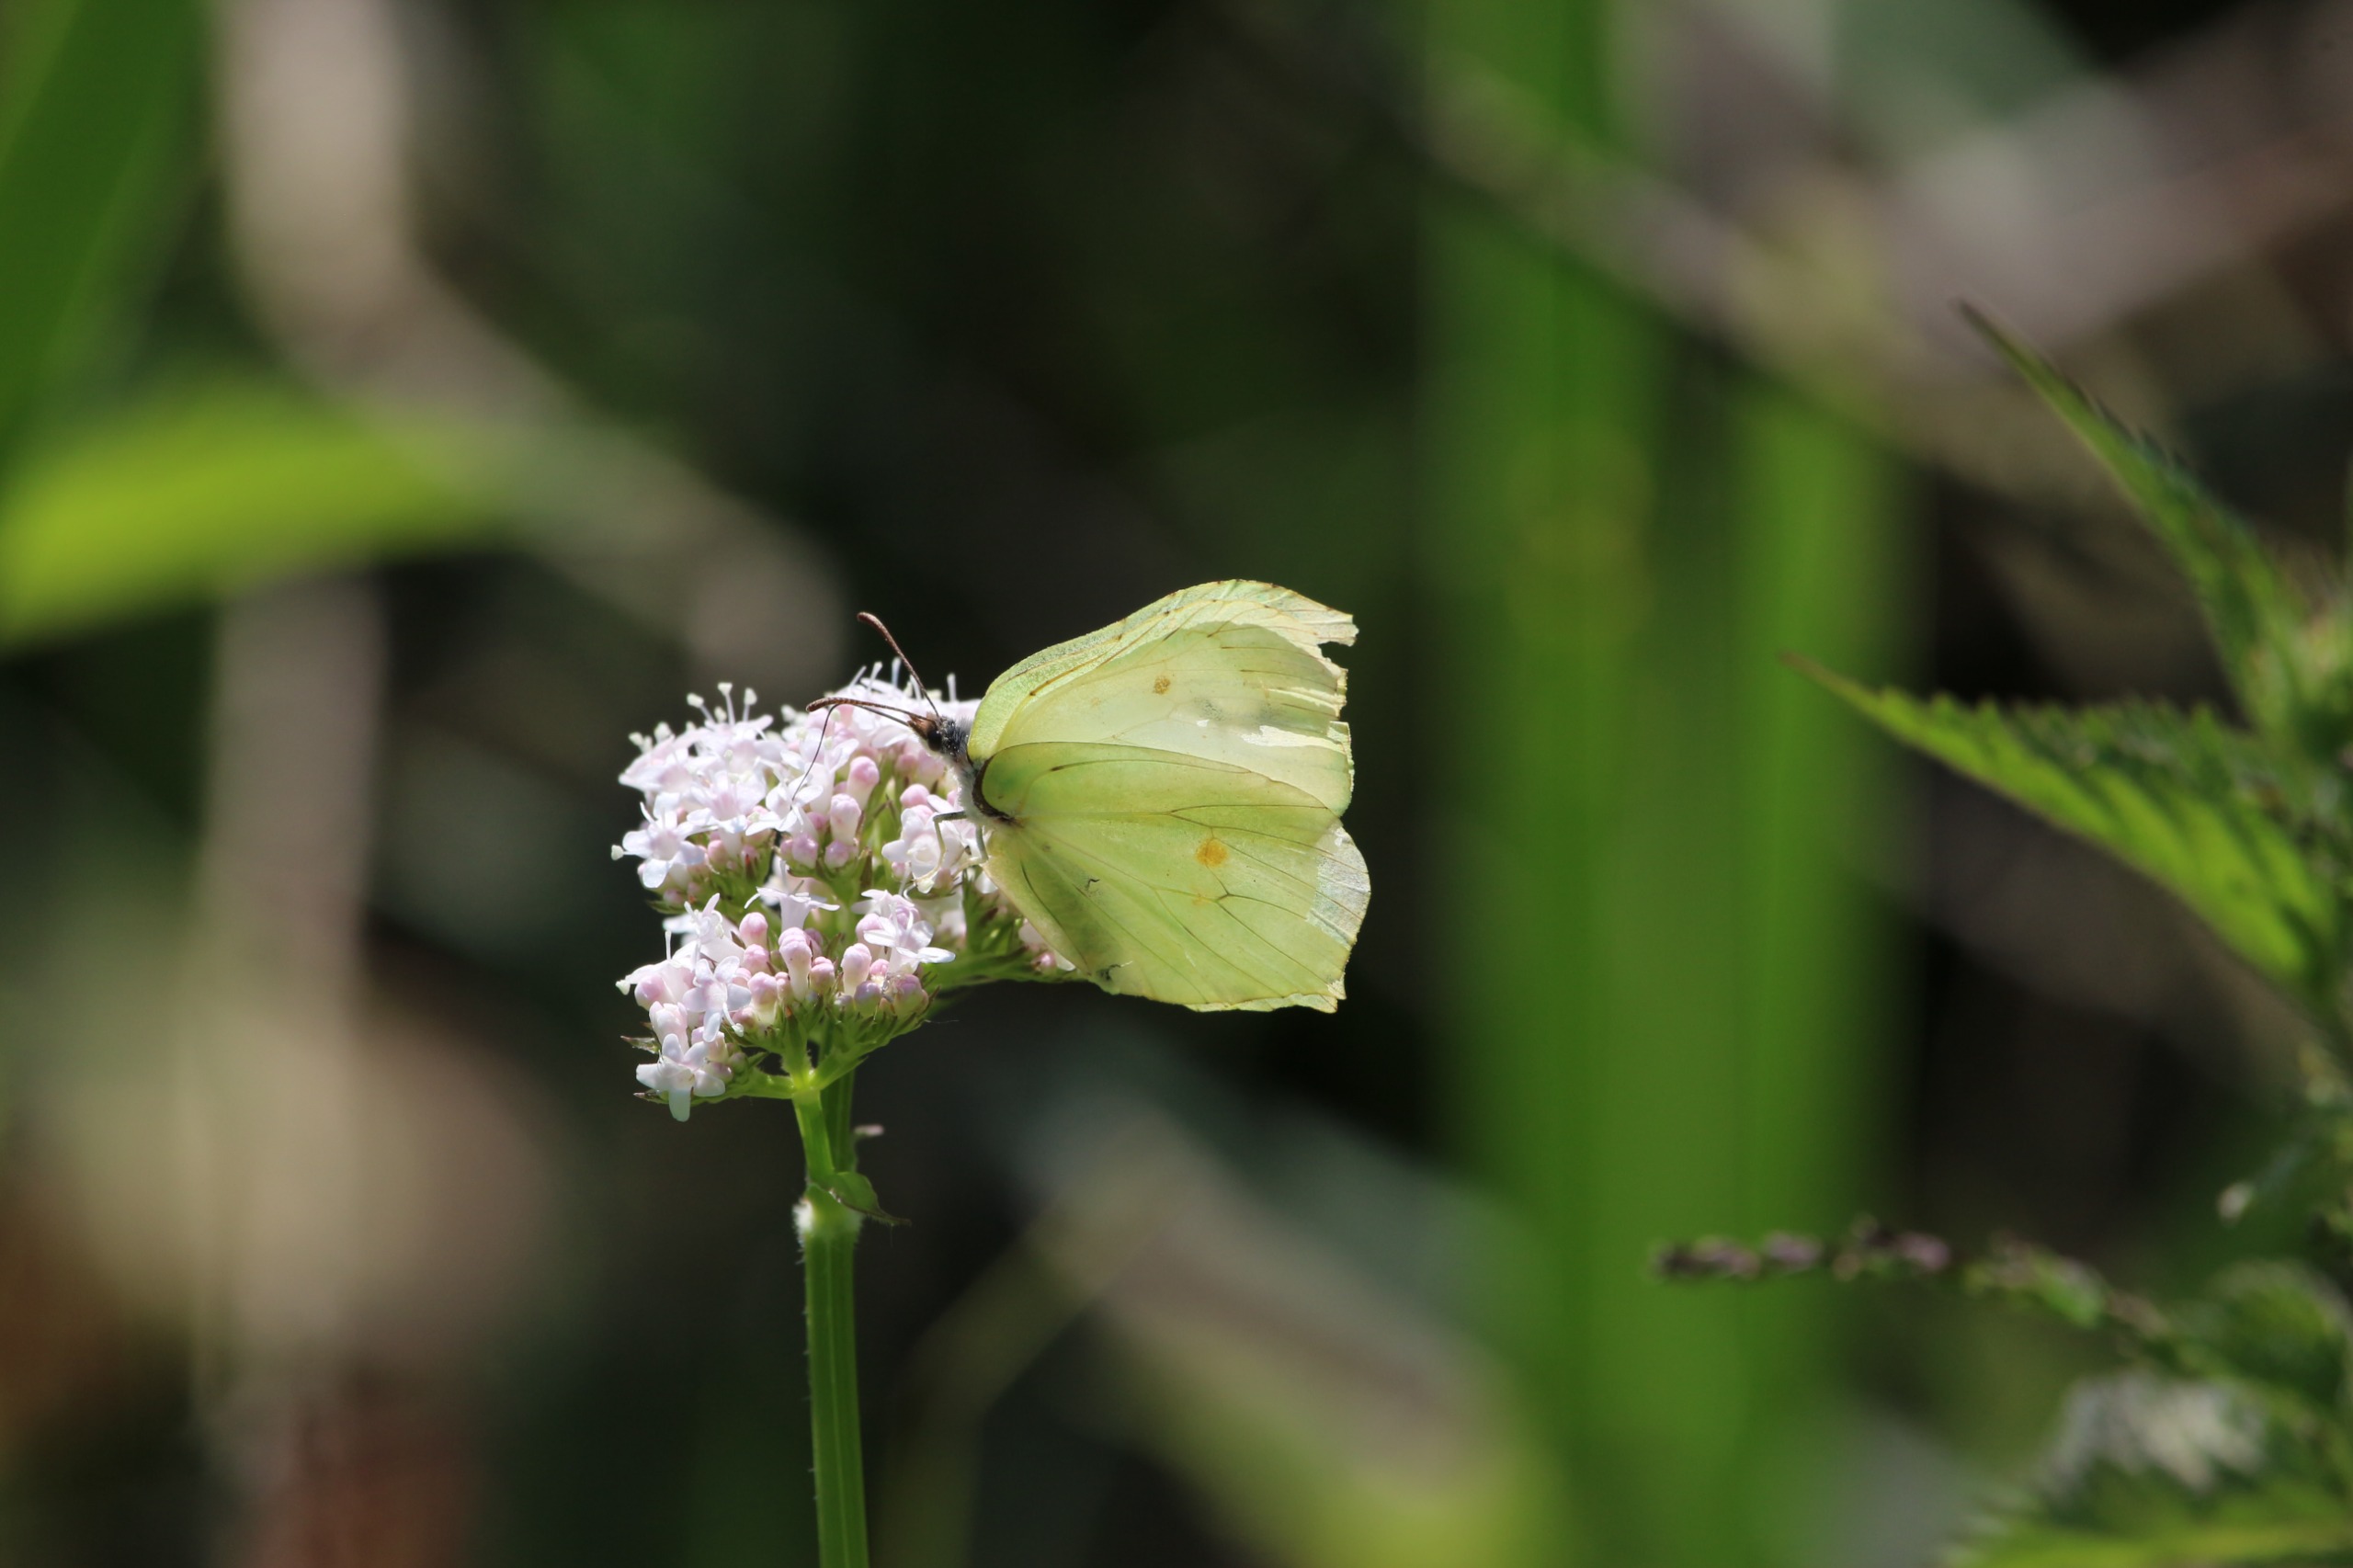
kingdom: Animalia
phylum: Arthropoda
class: Insecta
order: Lepidoptera
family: Pieridae
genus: Gonepteryx
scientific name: Gonepteryx rhamni
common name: Citronsommerfugl
